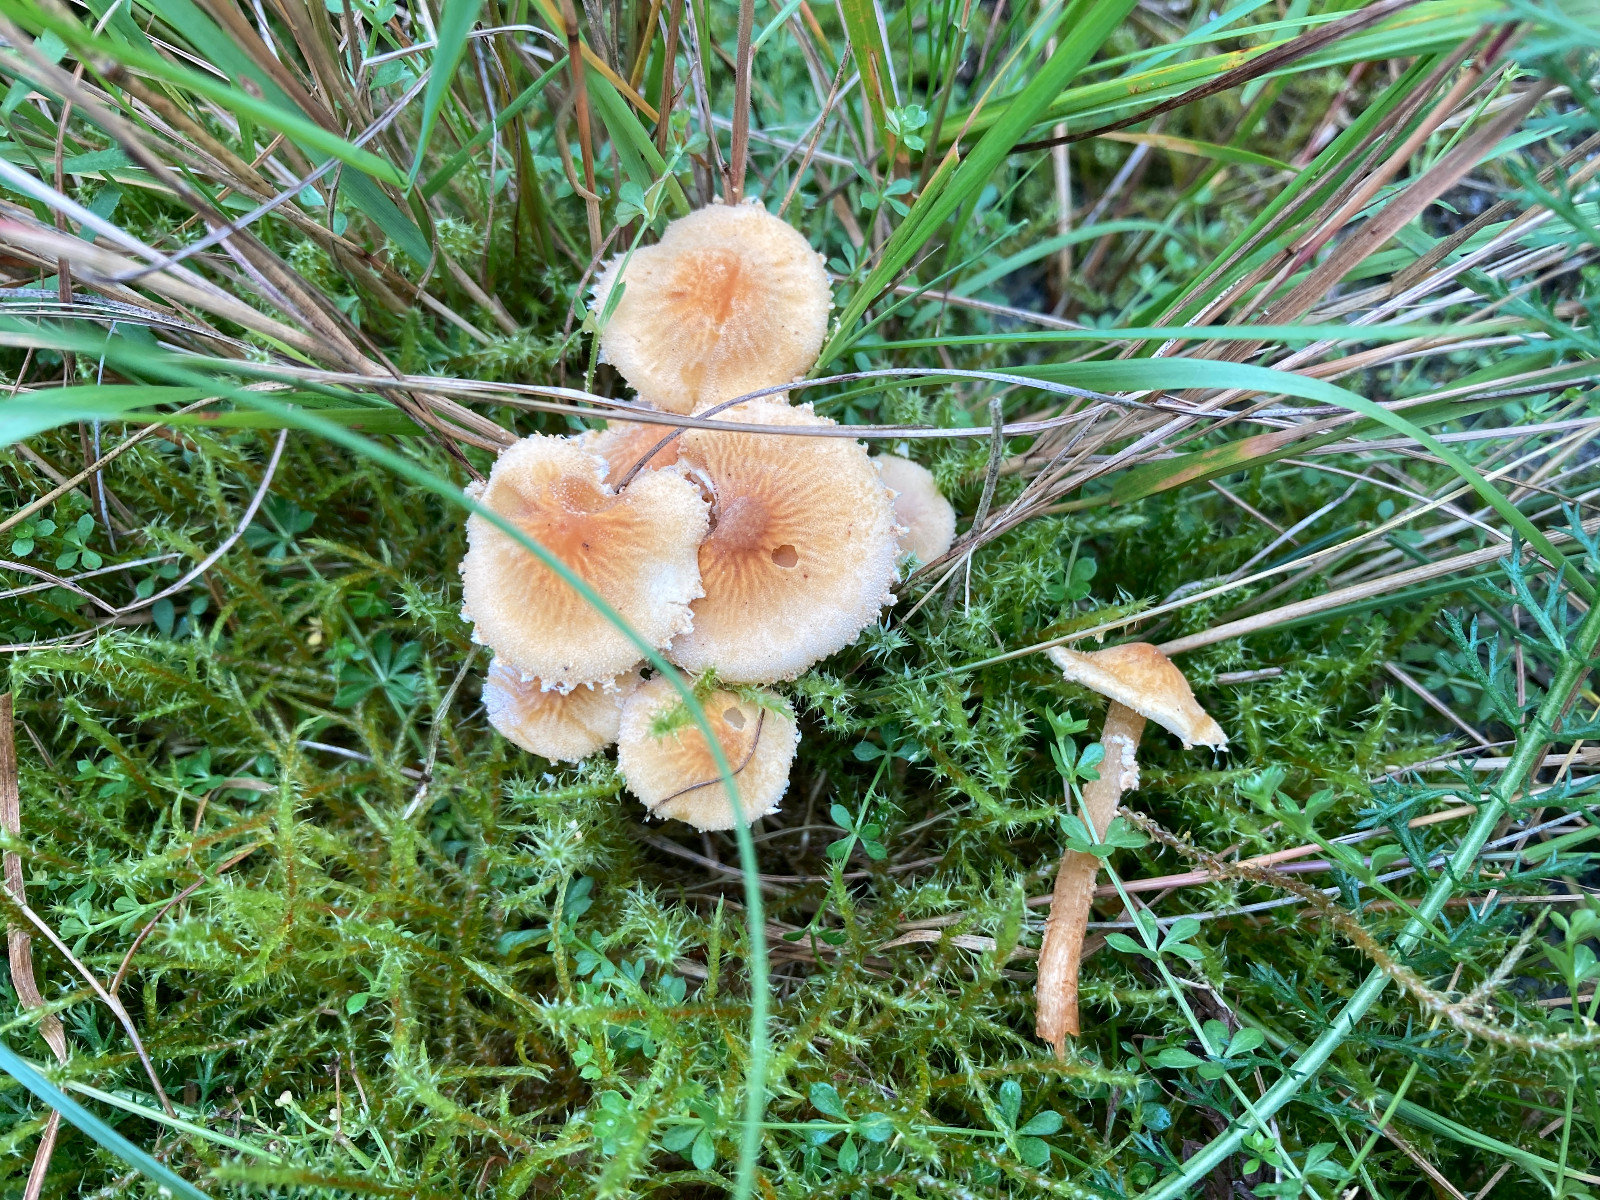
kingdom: Fungi
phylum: Basidiomycota
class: Agaricomycetes
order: Agaricales
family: Tricholomataceae
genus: Cystoderma
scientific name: Cystoderma amianthinum
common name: okkergul grynhat
